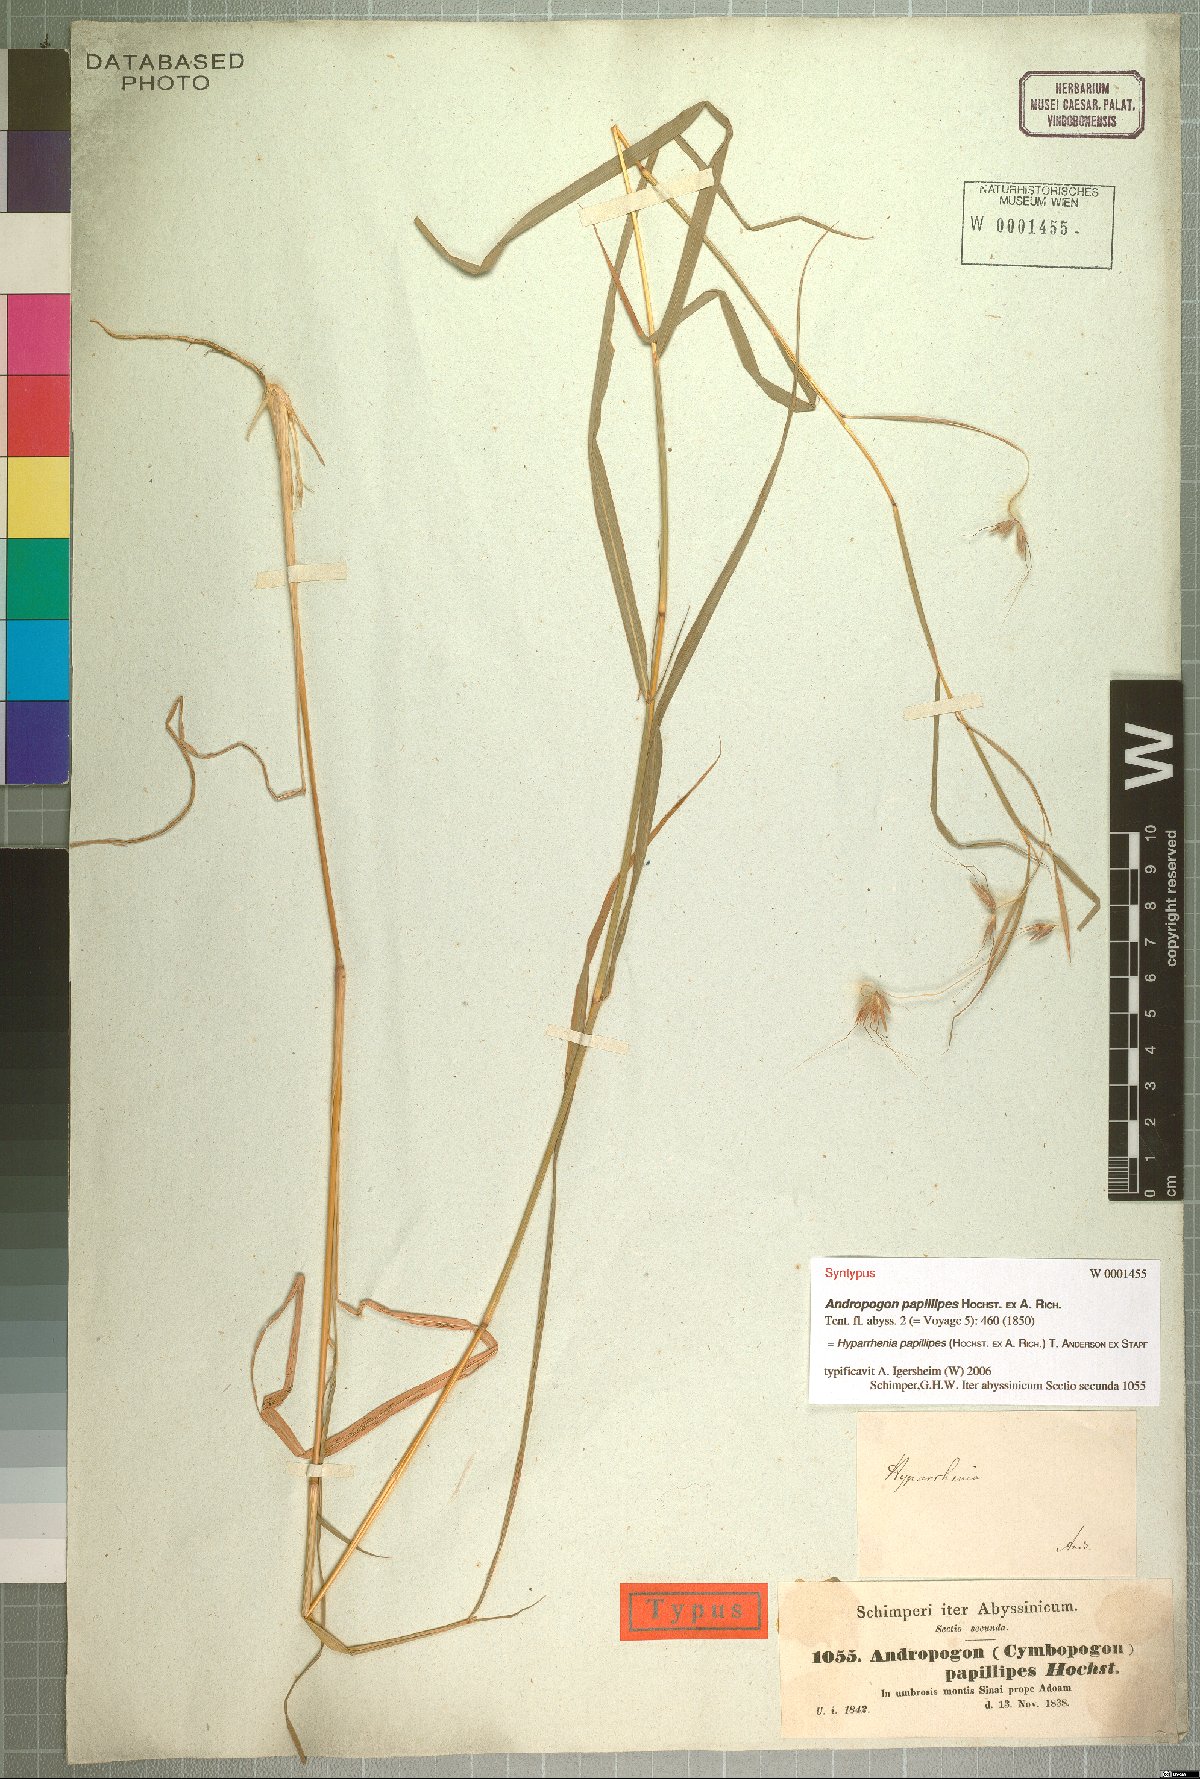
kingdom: Plantae
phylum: Tracheophyta
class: Liliopsida
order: Poales
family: Poaceae
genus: Hyparrhenia
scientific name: Hyparrhenia papillipes
